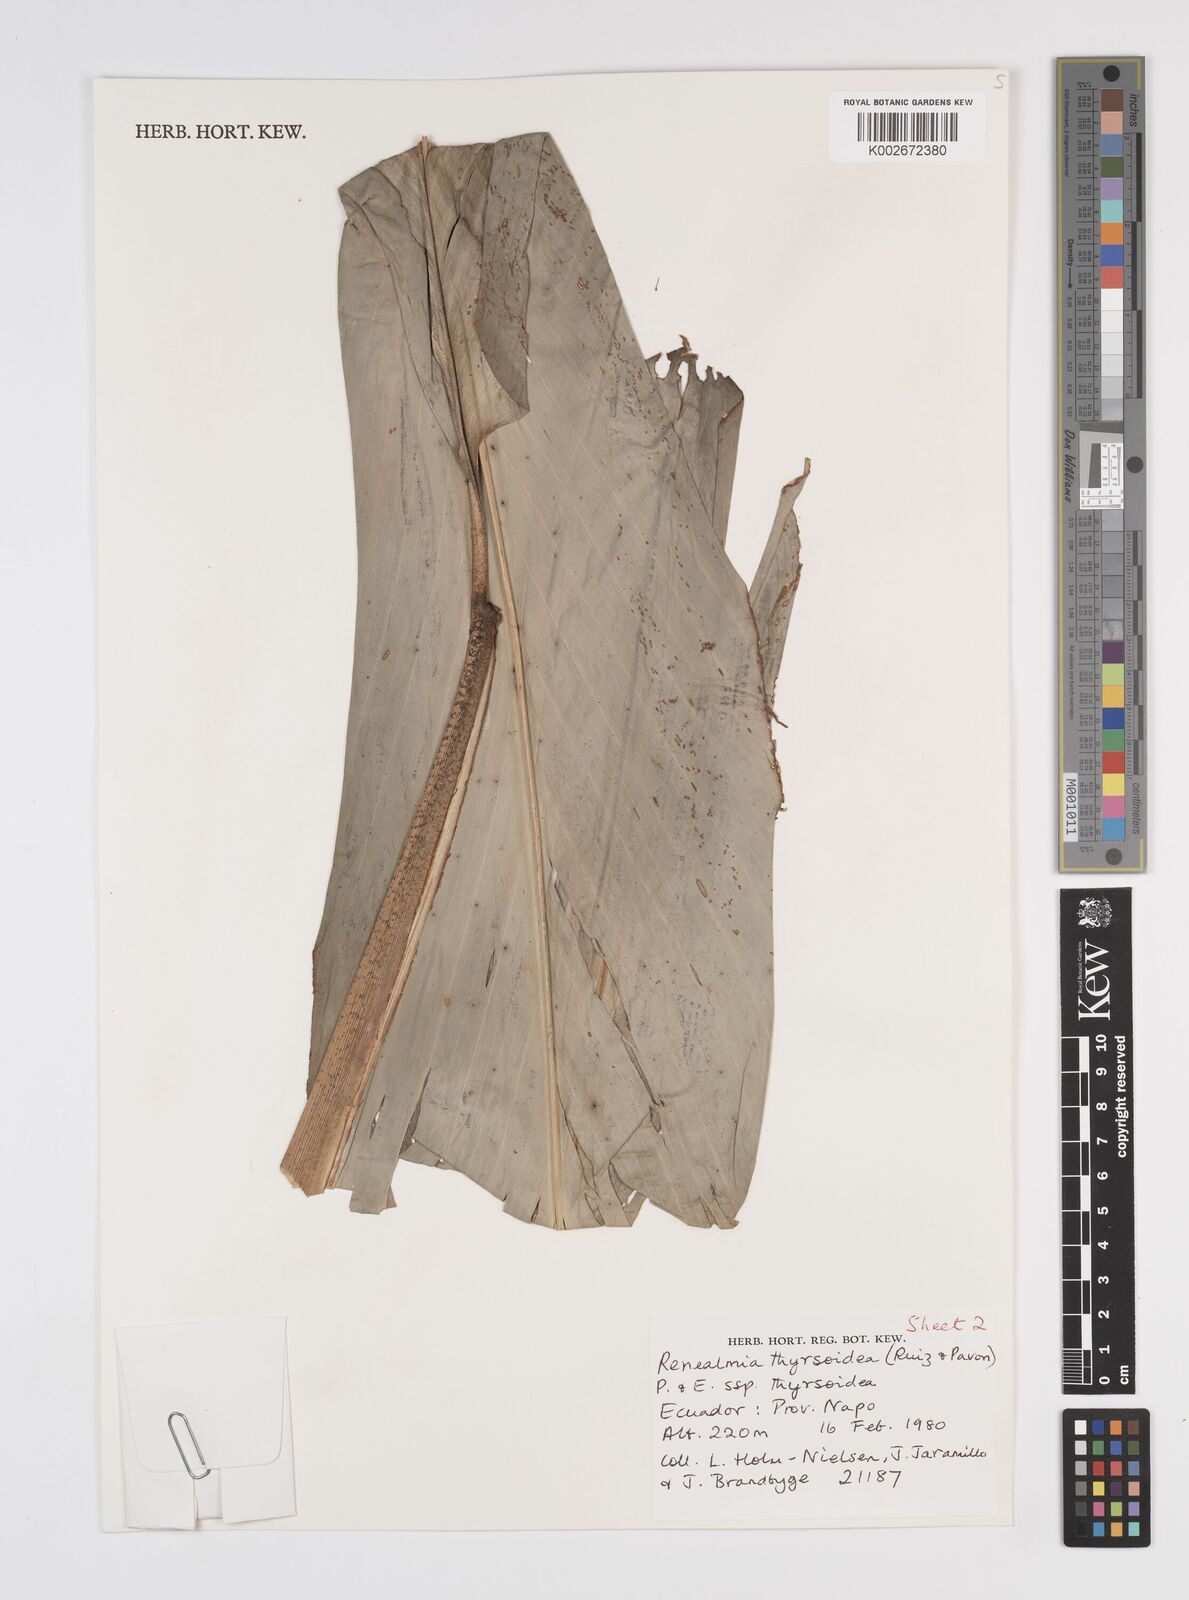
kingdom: Plantae
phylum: Tracheophyta
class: Liliopsida
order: Zingiberales
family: Zingiberaceae
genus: Renealmia
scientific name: Renealmia thyrsoidea
